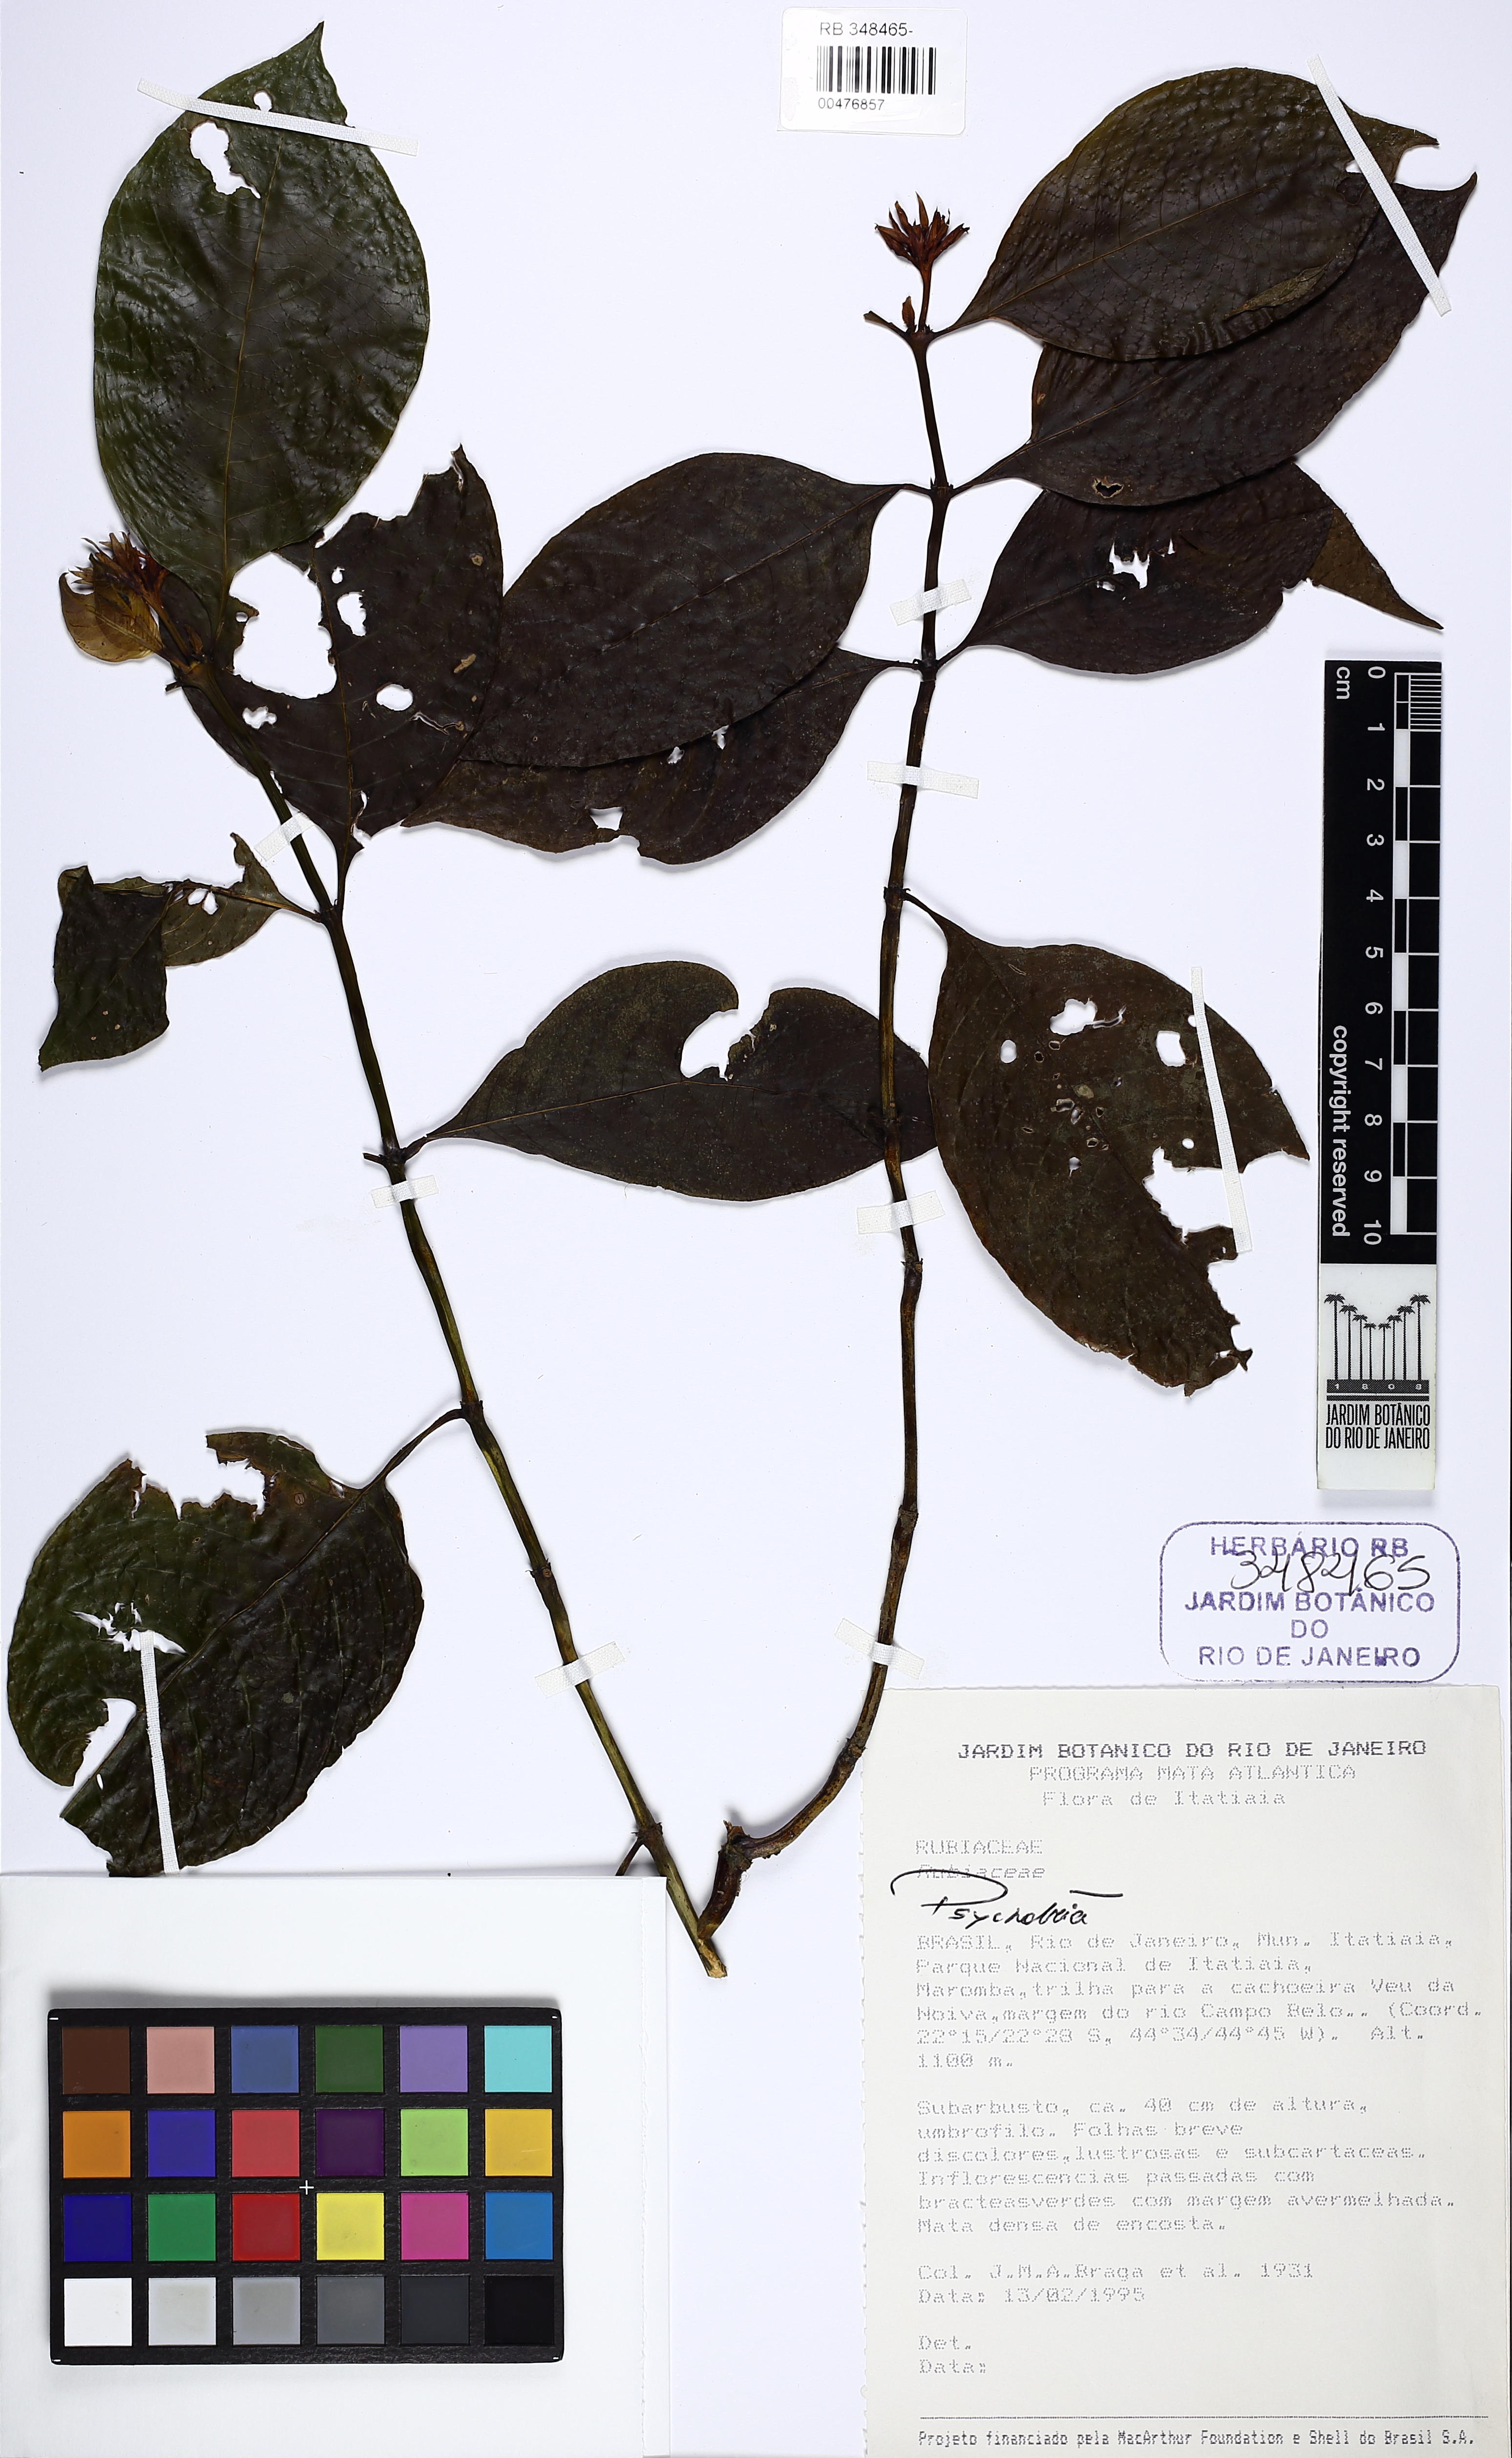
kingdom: Plantae
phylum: Tracheophyta
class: Magnoliopsida
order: Gentianales
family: Rubiaceae
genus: Palicourea
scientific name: Palicourea justiciifolia
